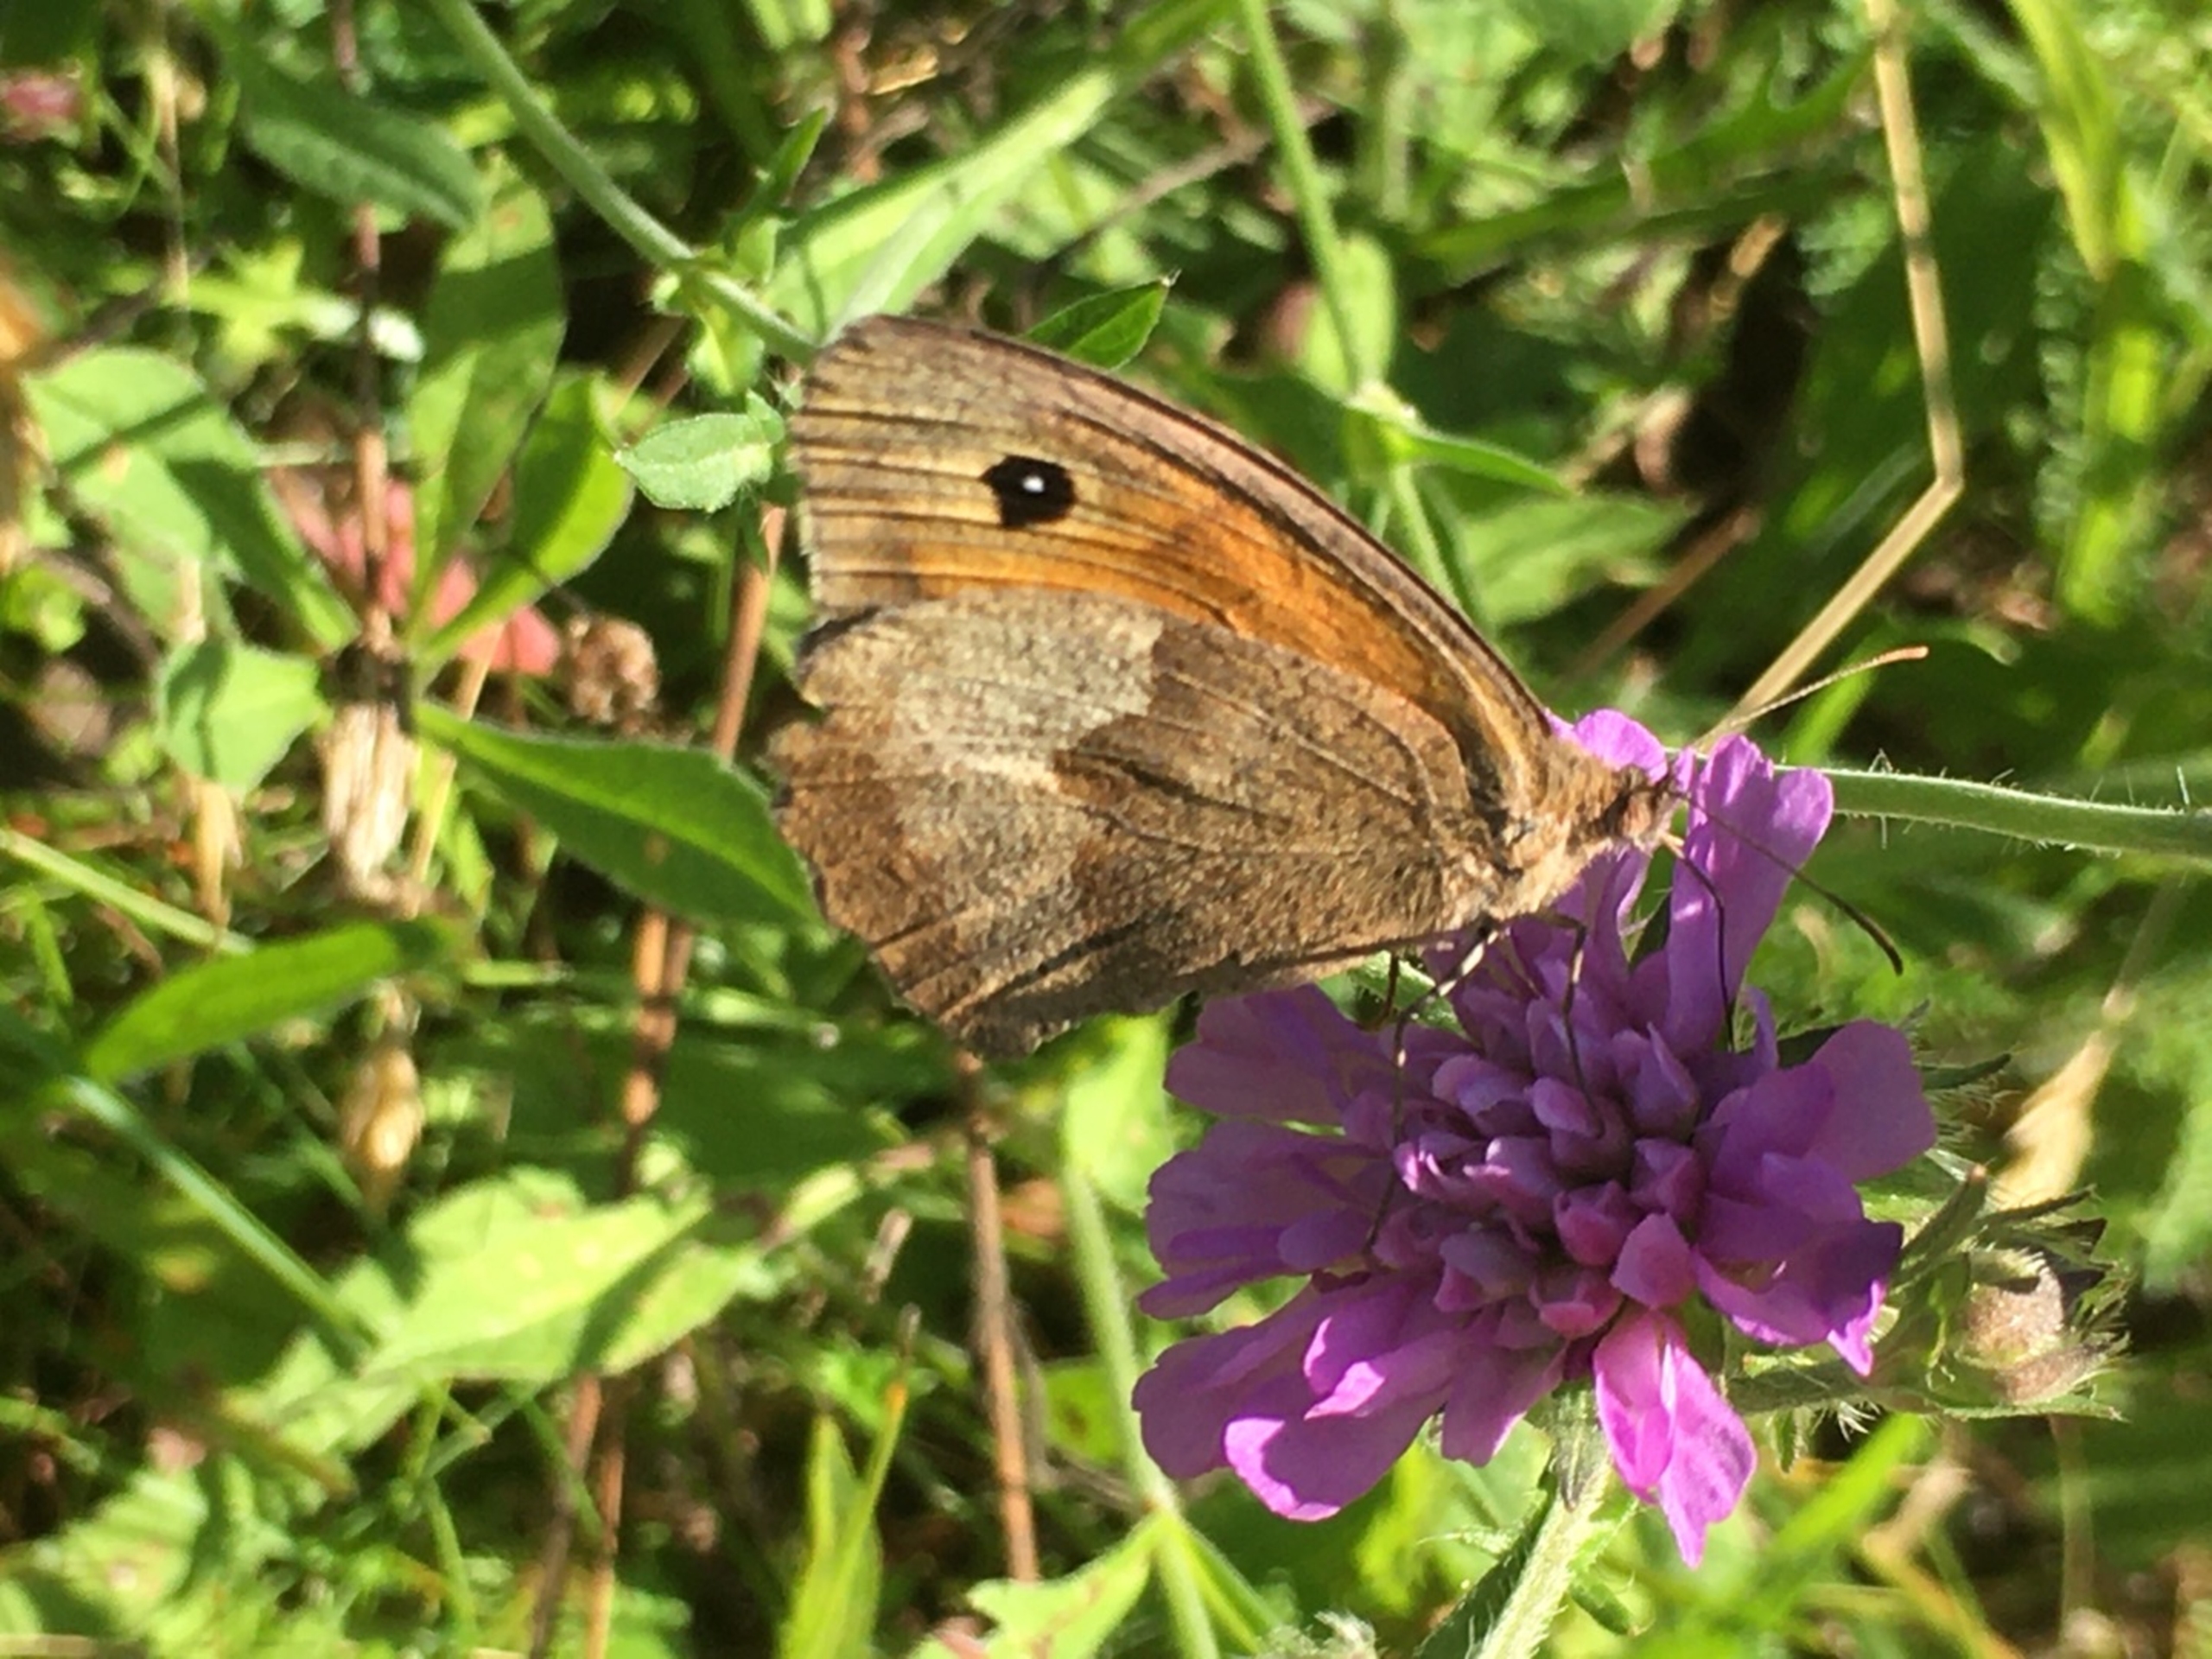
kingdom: Animalia
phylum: Arthropoda
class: Insecta
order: Lepidoptera
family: Nymphalidae
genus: Maniola
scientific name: Maniola jurtina
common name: Græsrandøje
